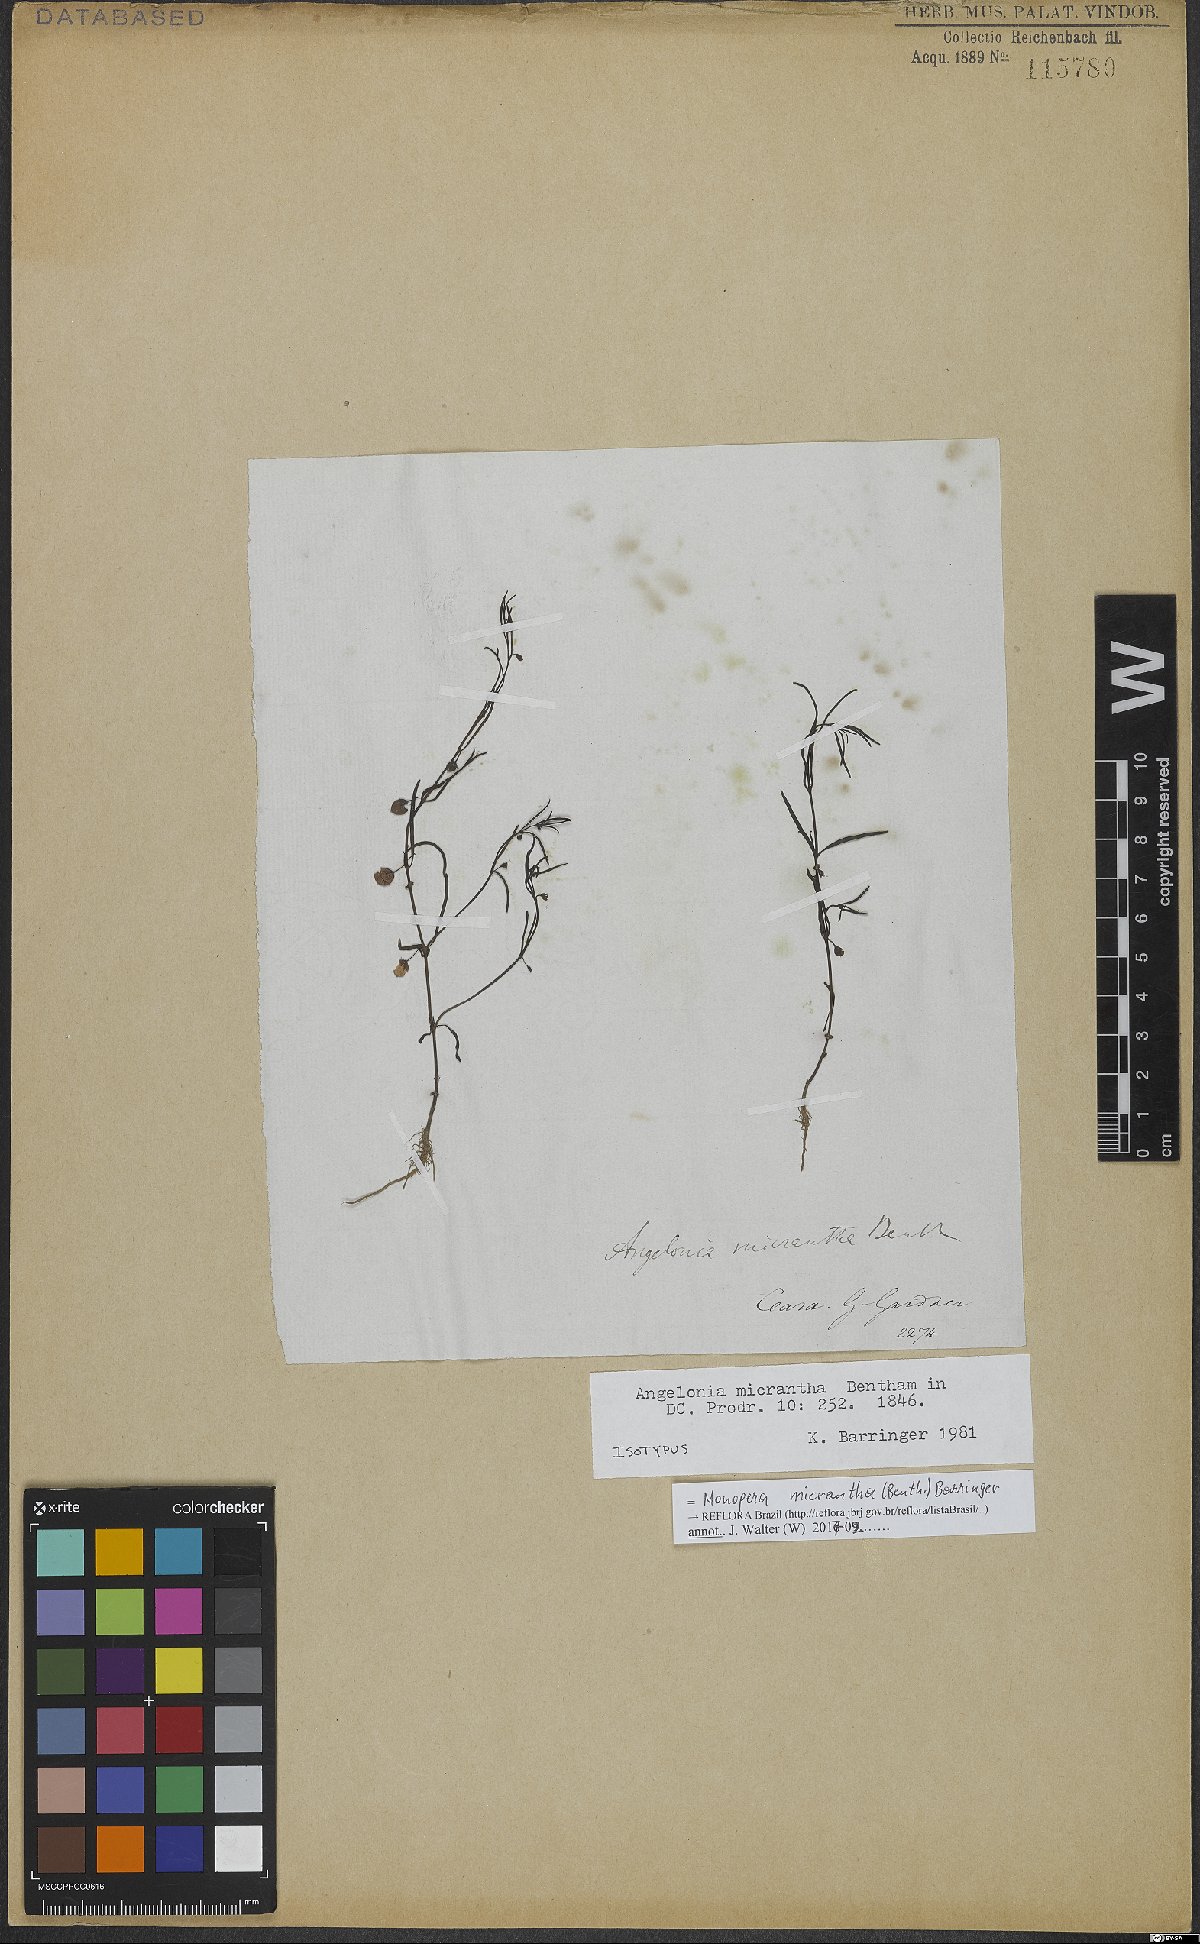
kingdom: Plantae
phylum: Tracheophyta
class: Magnoliopsida
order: Lamiales
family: Plantaginaceae
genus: Angelonia
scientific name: Angelonia micrantha
